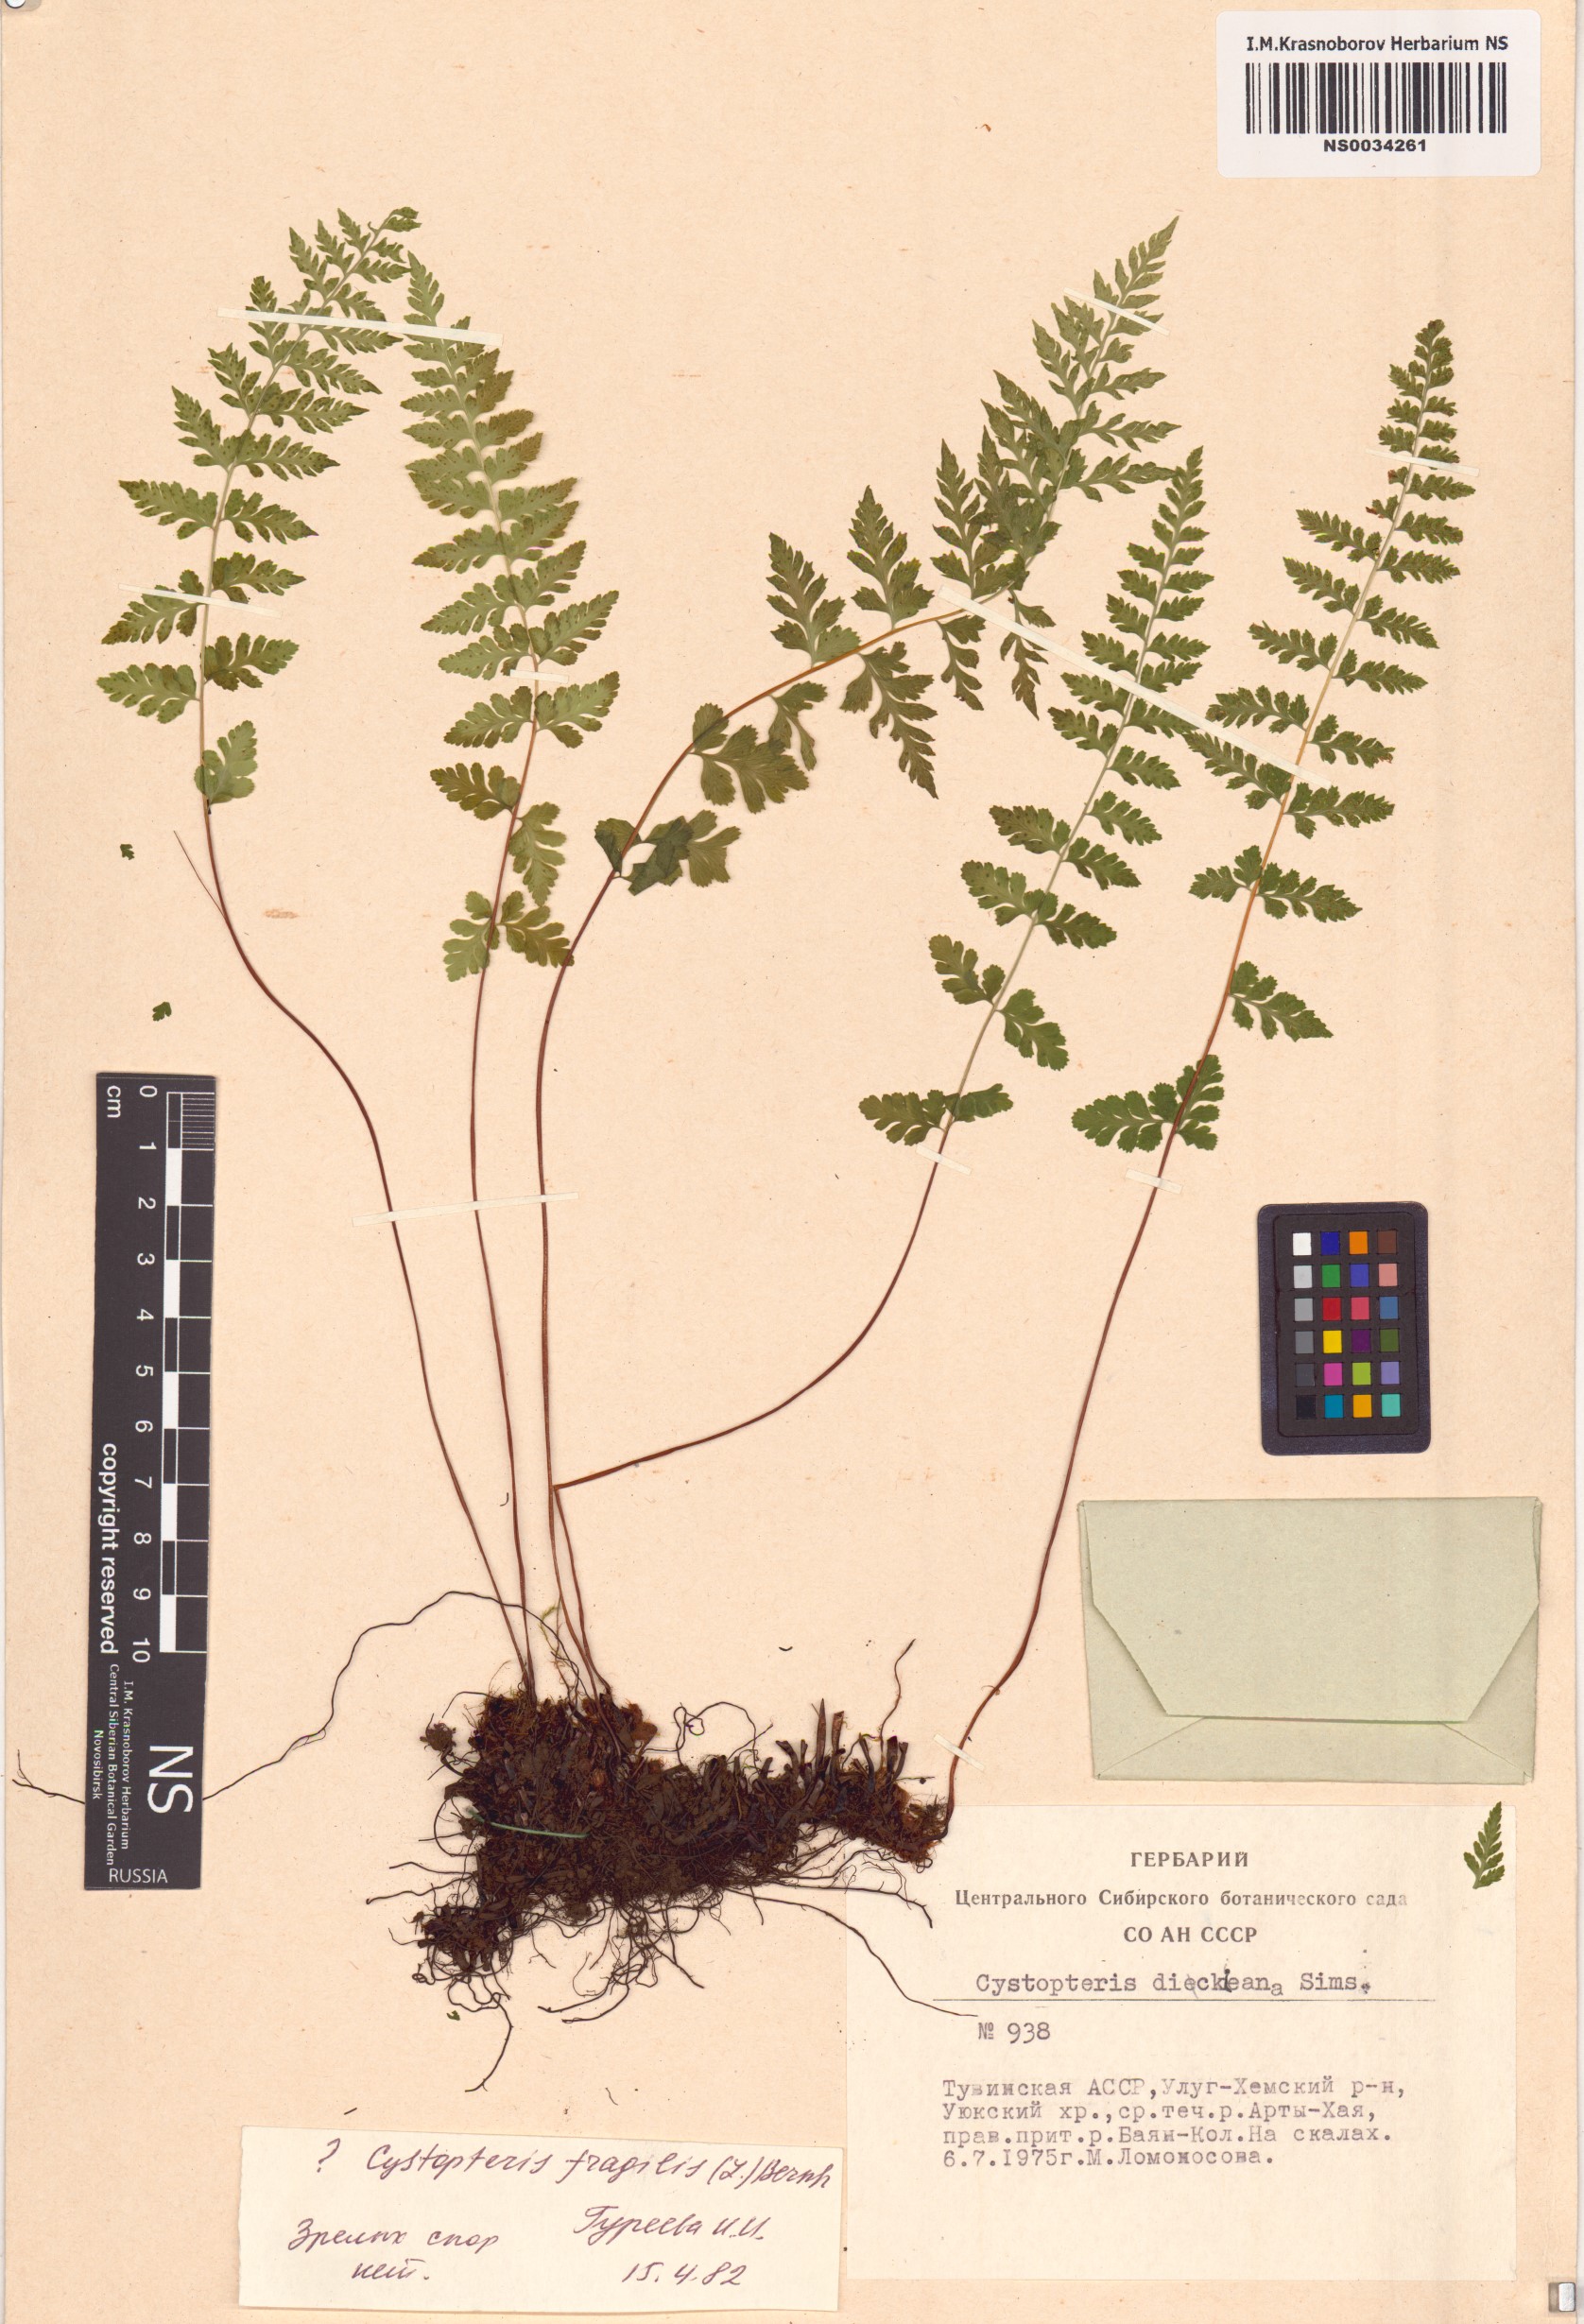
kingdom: Plantae
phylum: Tracheophyta
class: Polypodiopsida
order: Polypodiales
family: Cystopteridaceae
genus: Cystopteris
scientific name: Cystopteris fragilis
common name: Brittle bladder fern
